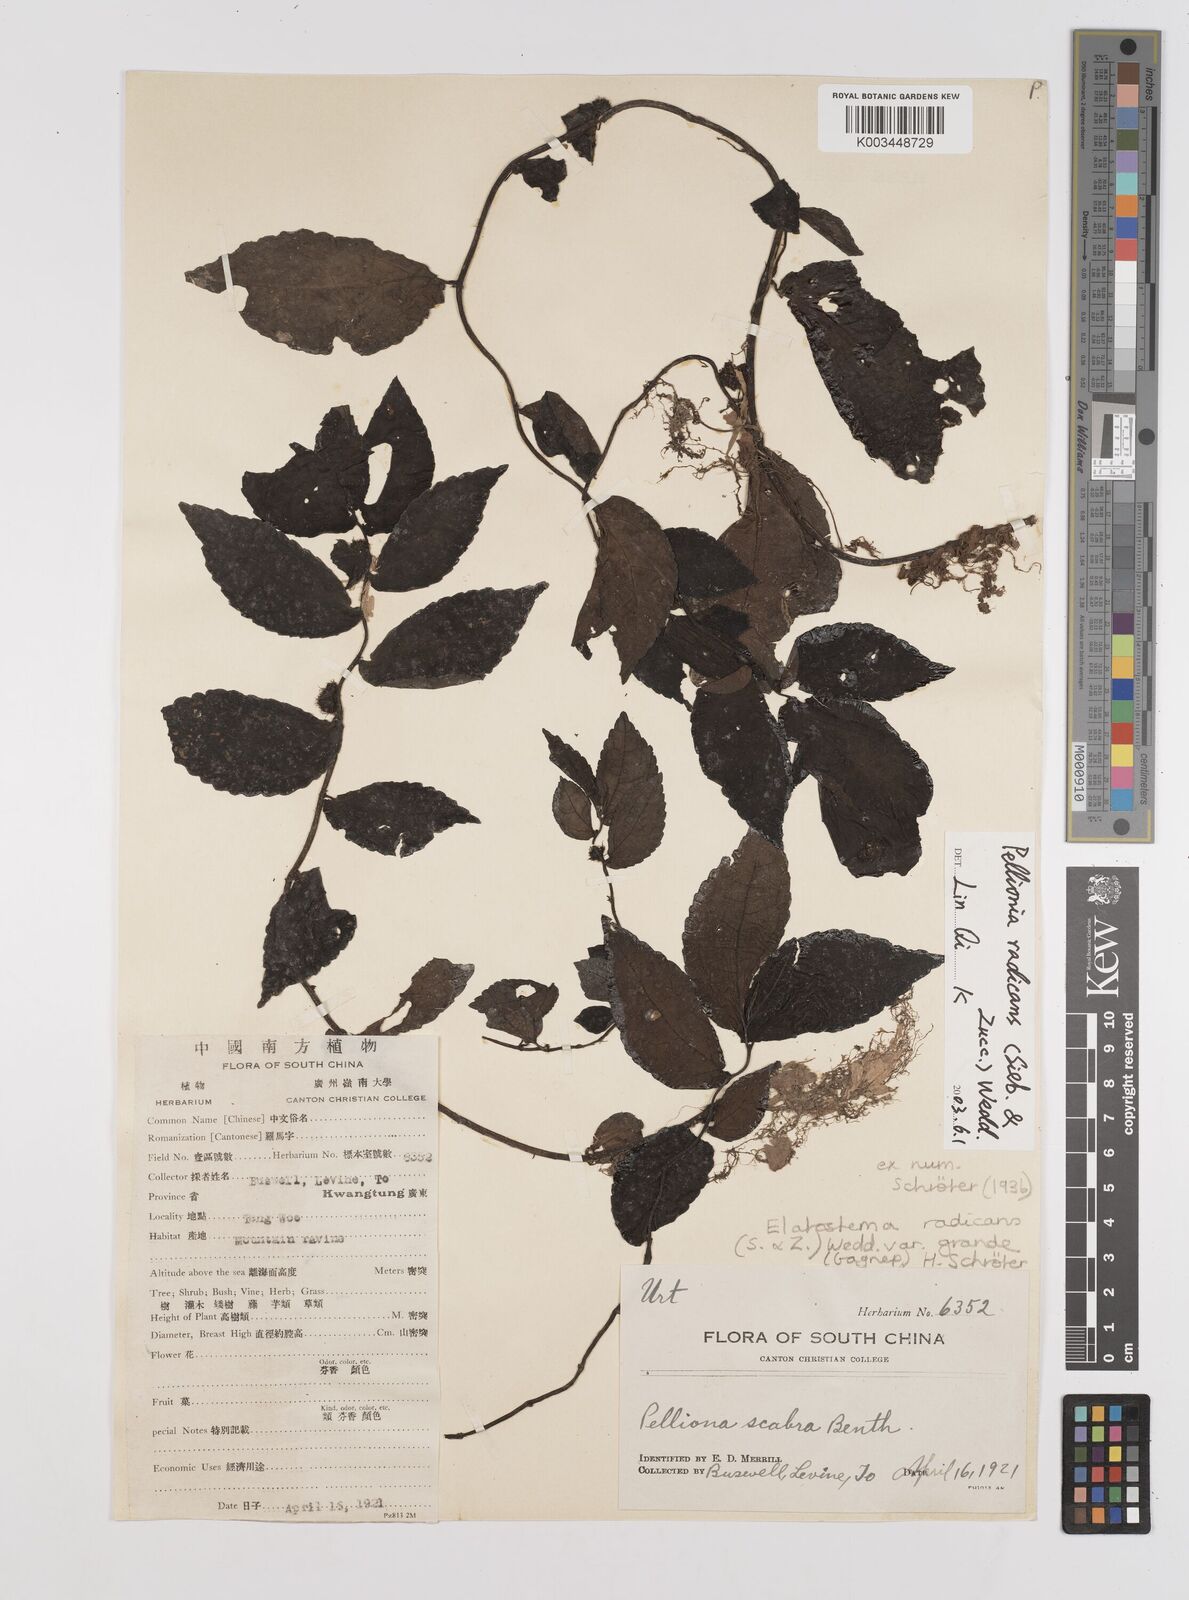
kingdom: Plantae
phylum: Tracheophyta
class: Magnoliopsida
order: Rosales
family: Urticaceae
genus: Elatostema
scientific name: Elatostema radicans
